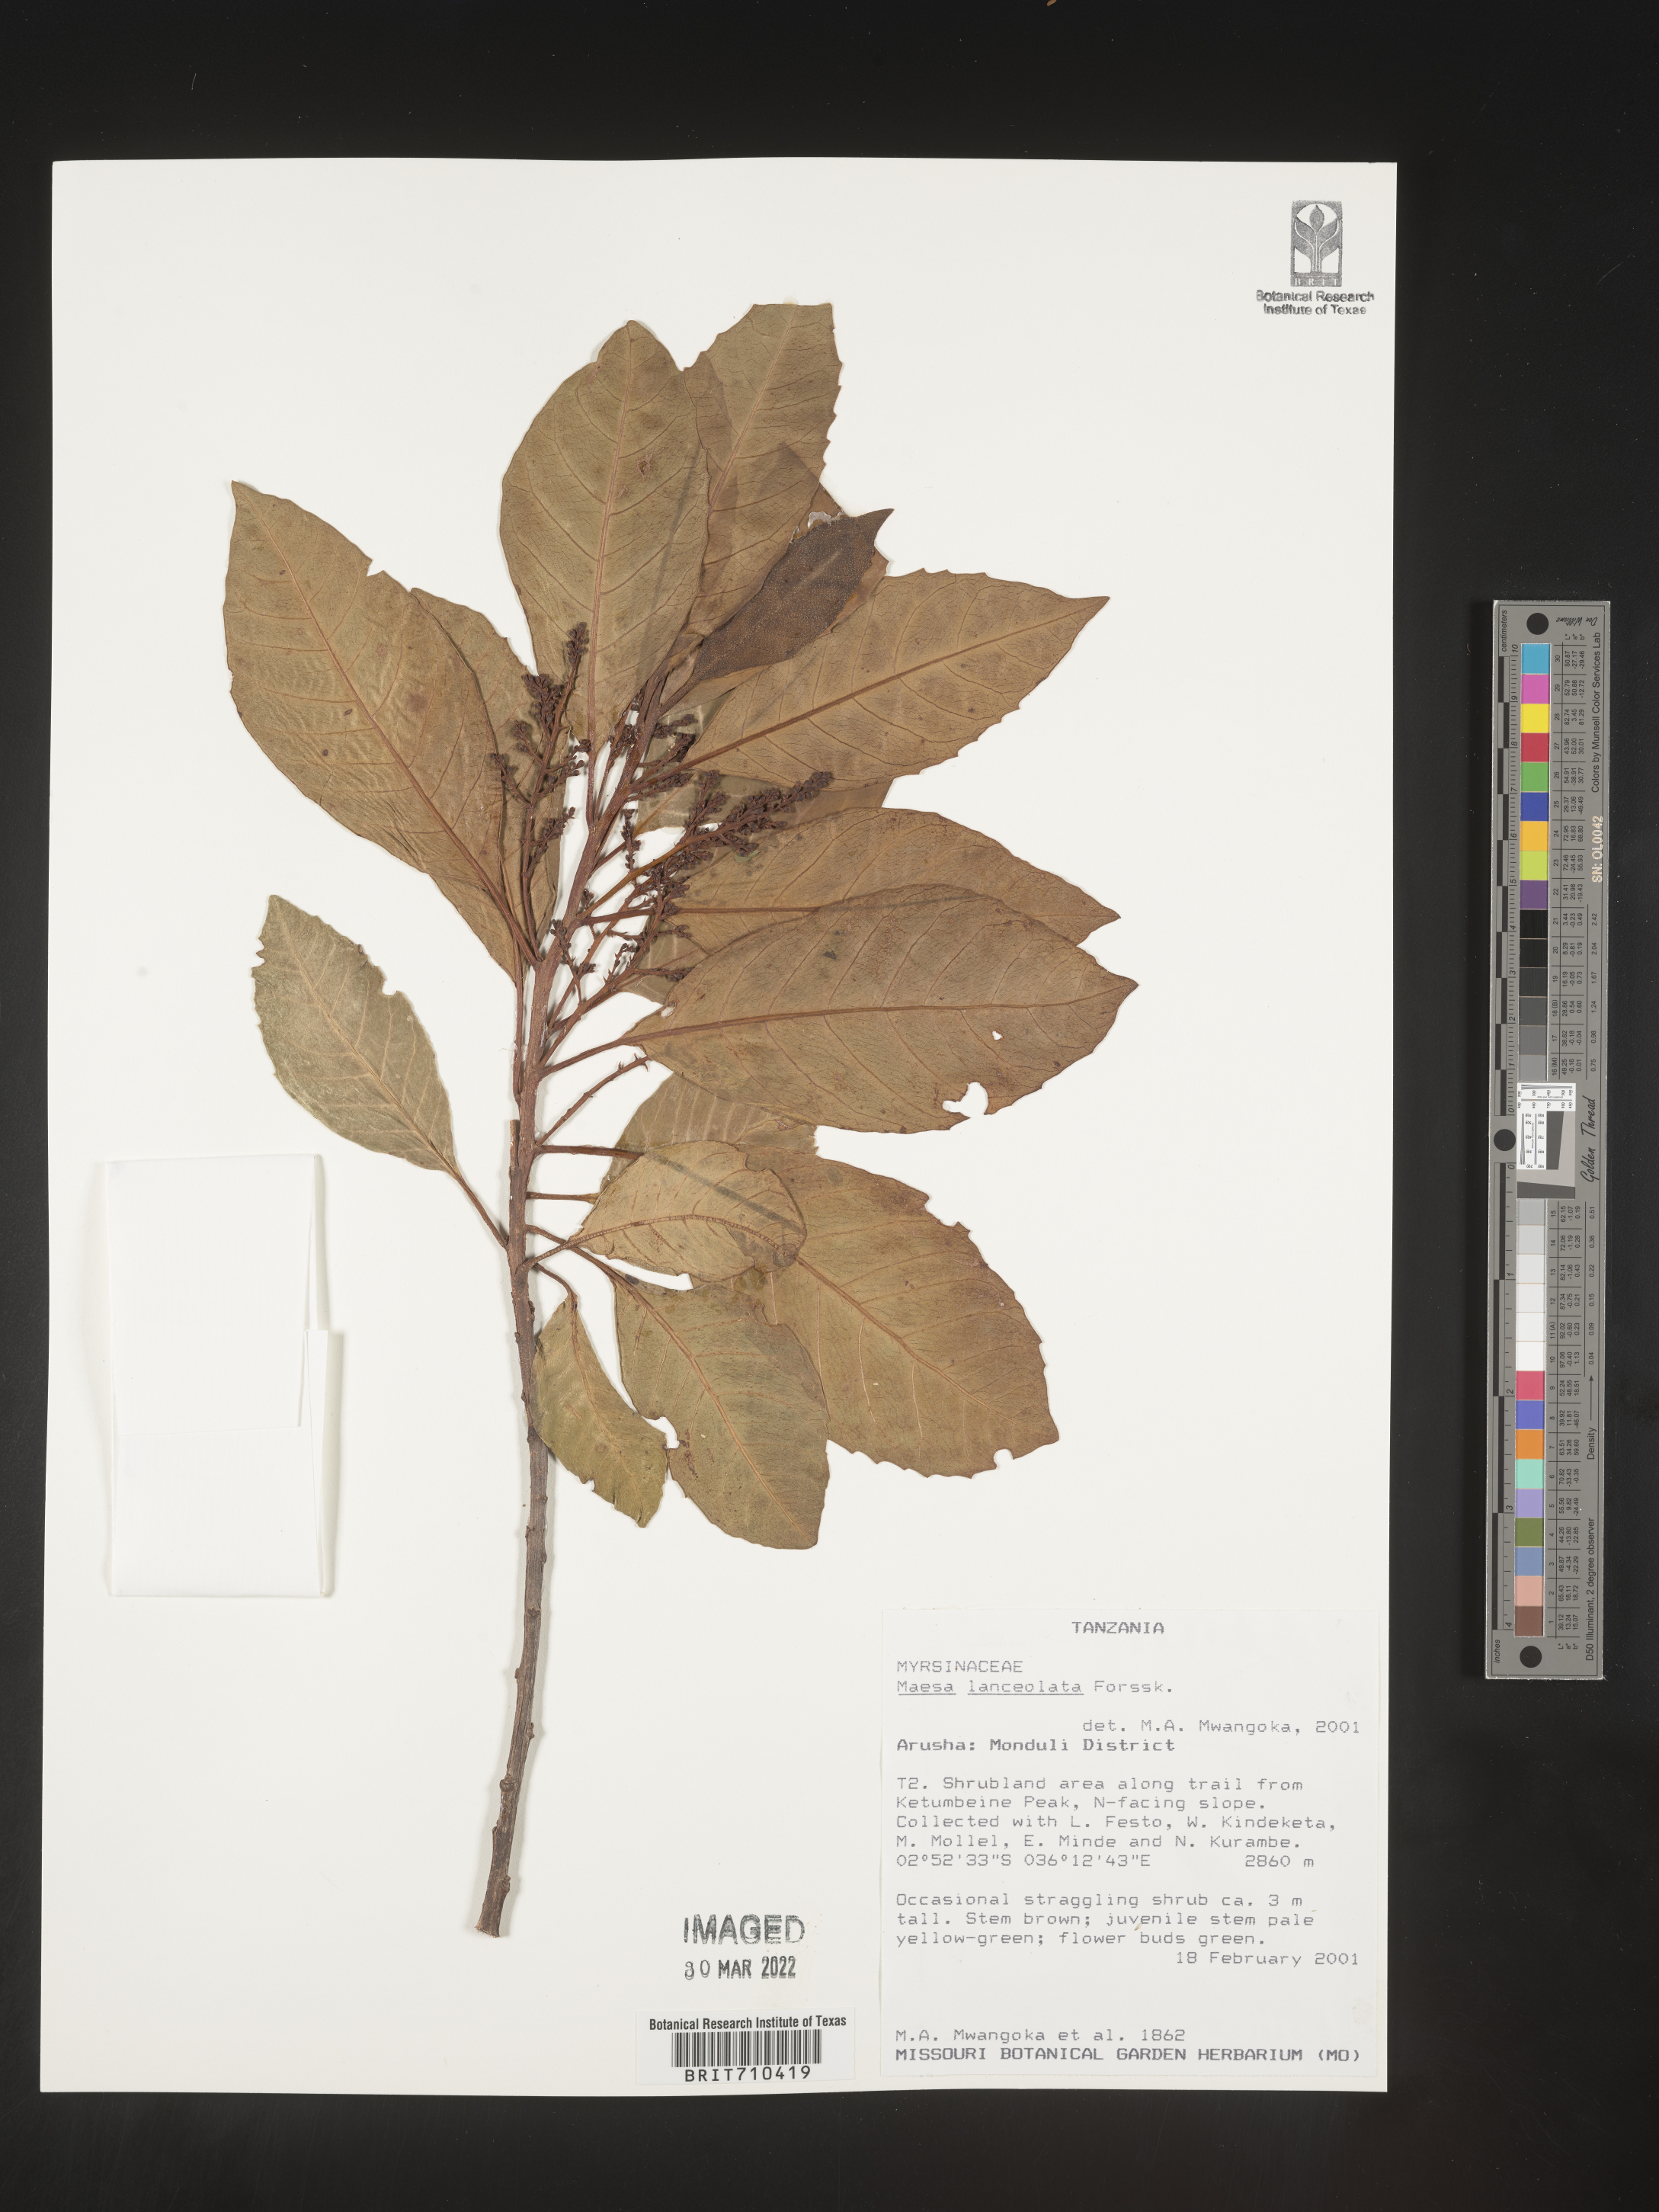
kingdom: Plantae
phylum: Tracheophyta
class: Magnoliopsida
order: Ericales
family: Primulaceae
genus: Maesa
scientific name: Maesa
